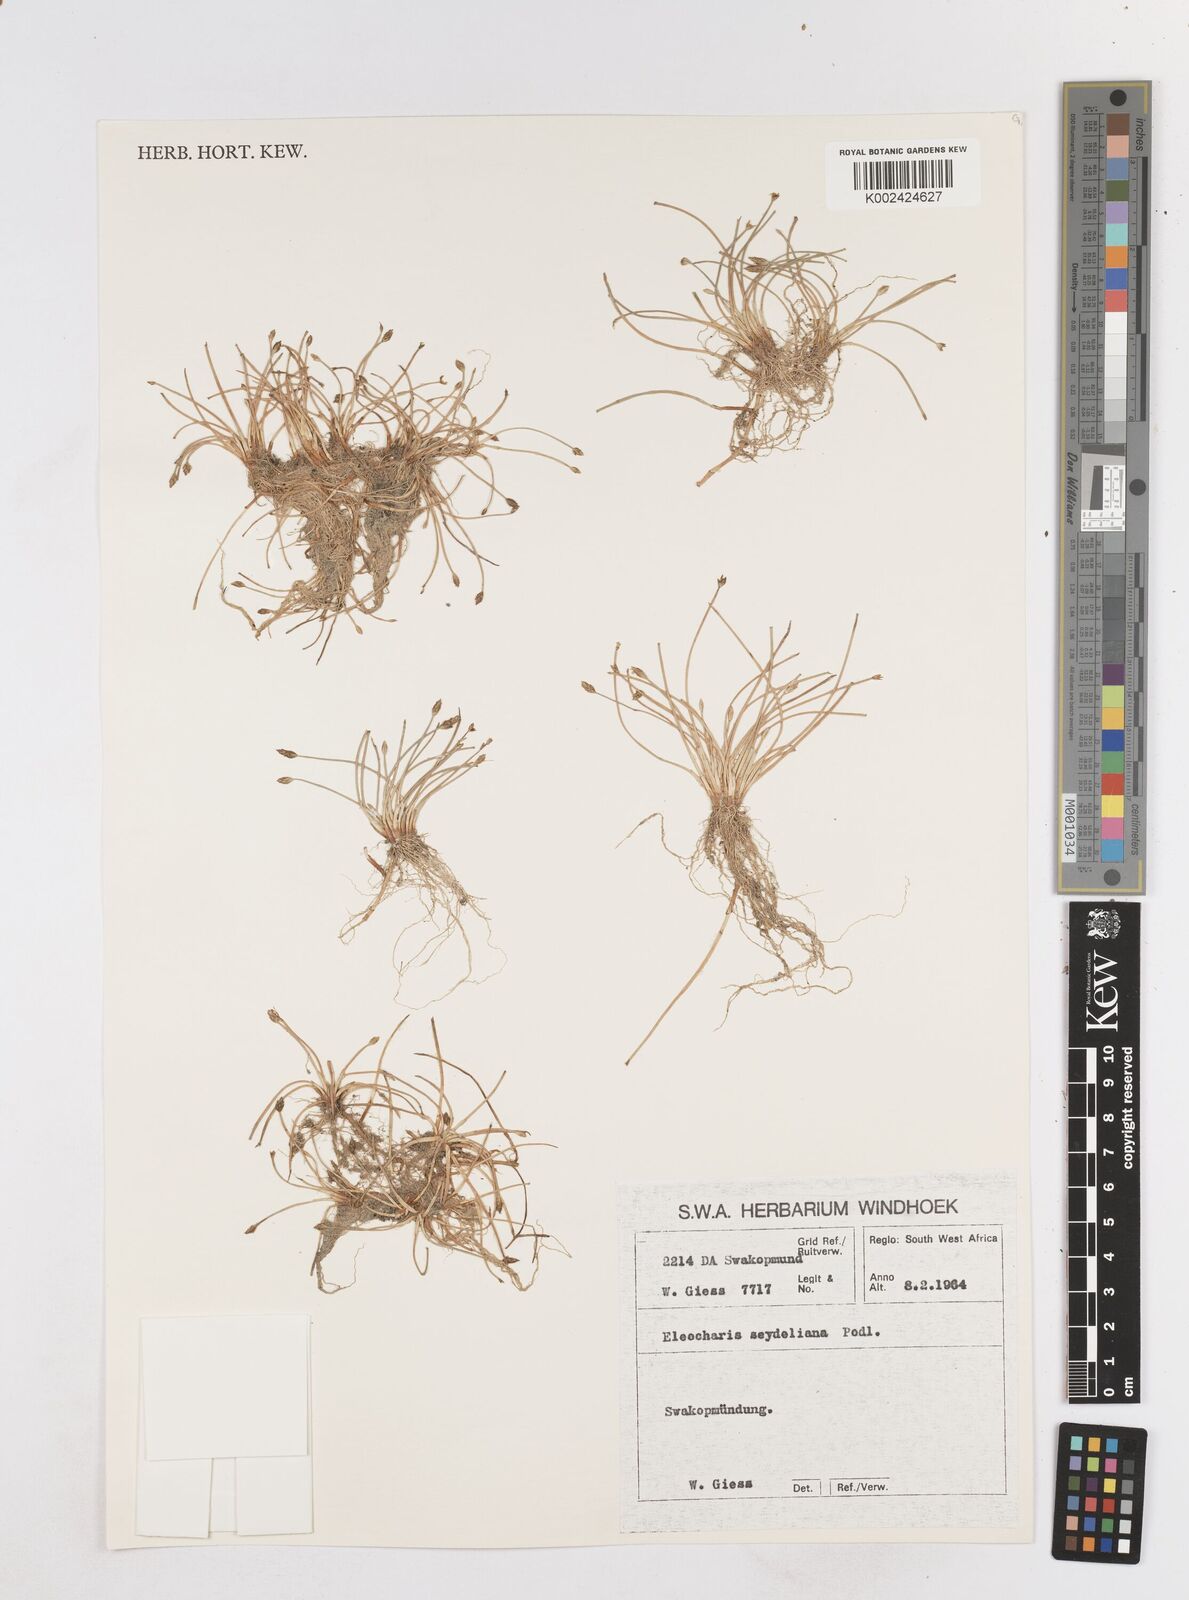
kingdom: Plantae
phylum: Tracheophyta
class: Liliopsida
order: Poales
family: Cyperaceae
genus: Eleocharis
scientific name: Eleocharis schlechteri
